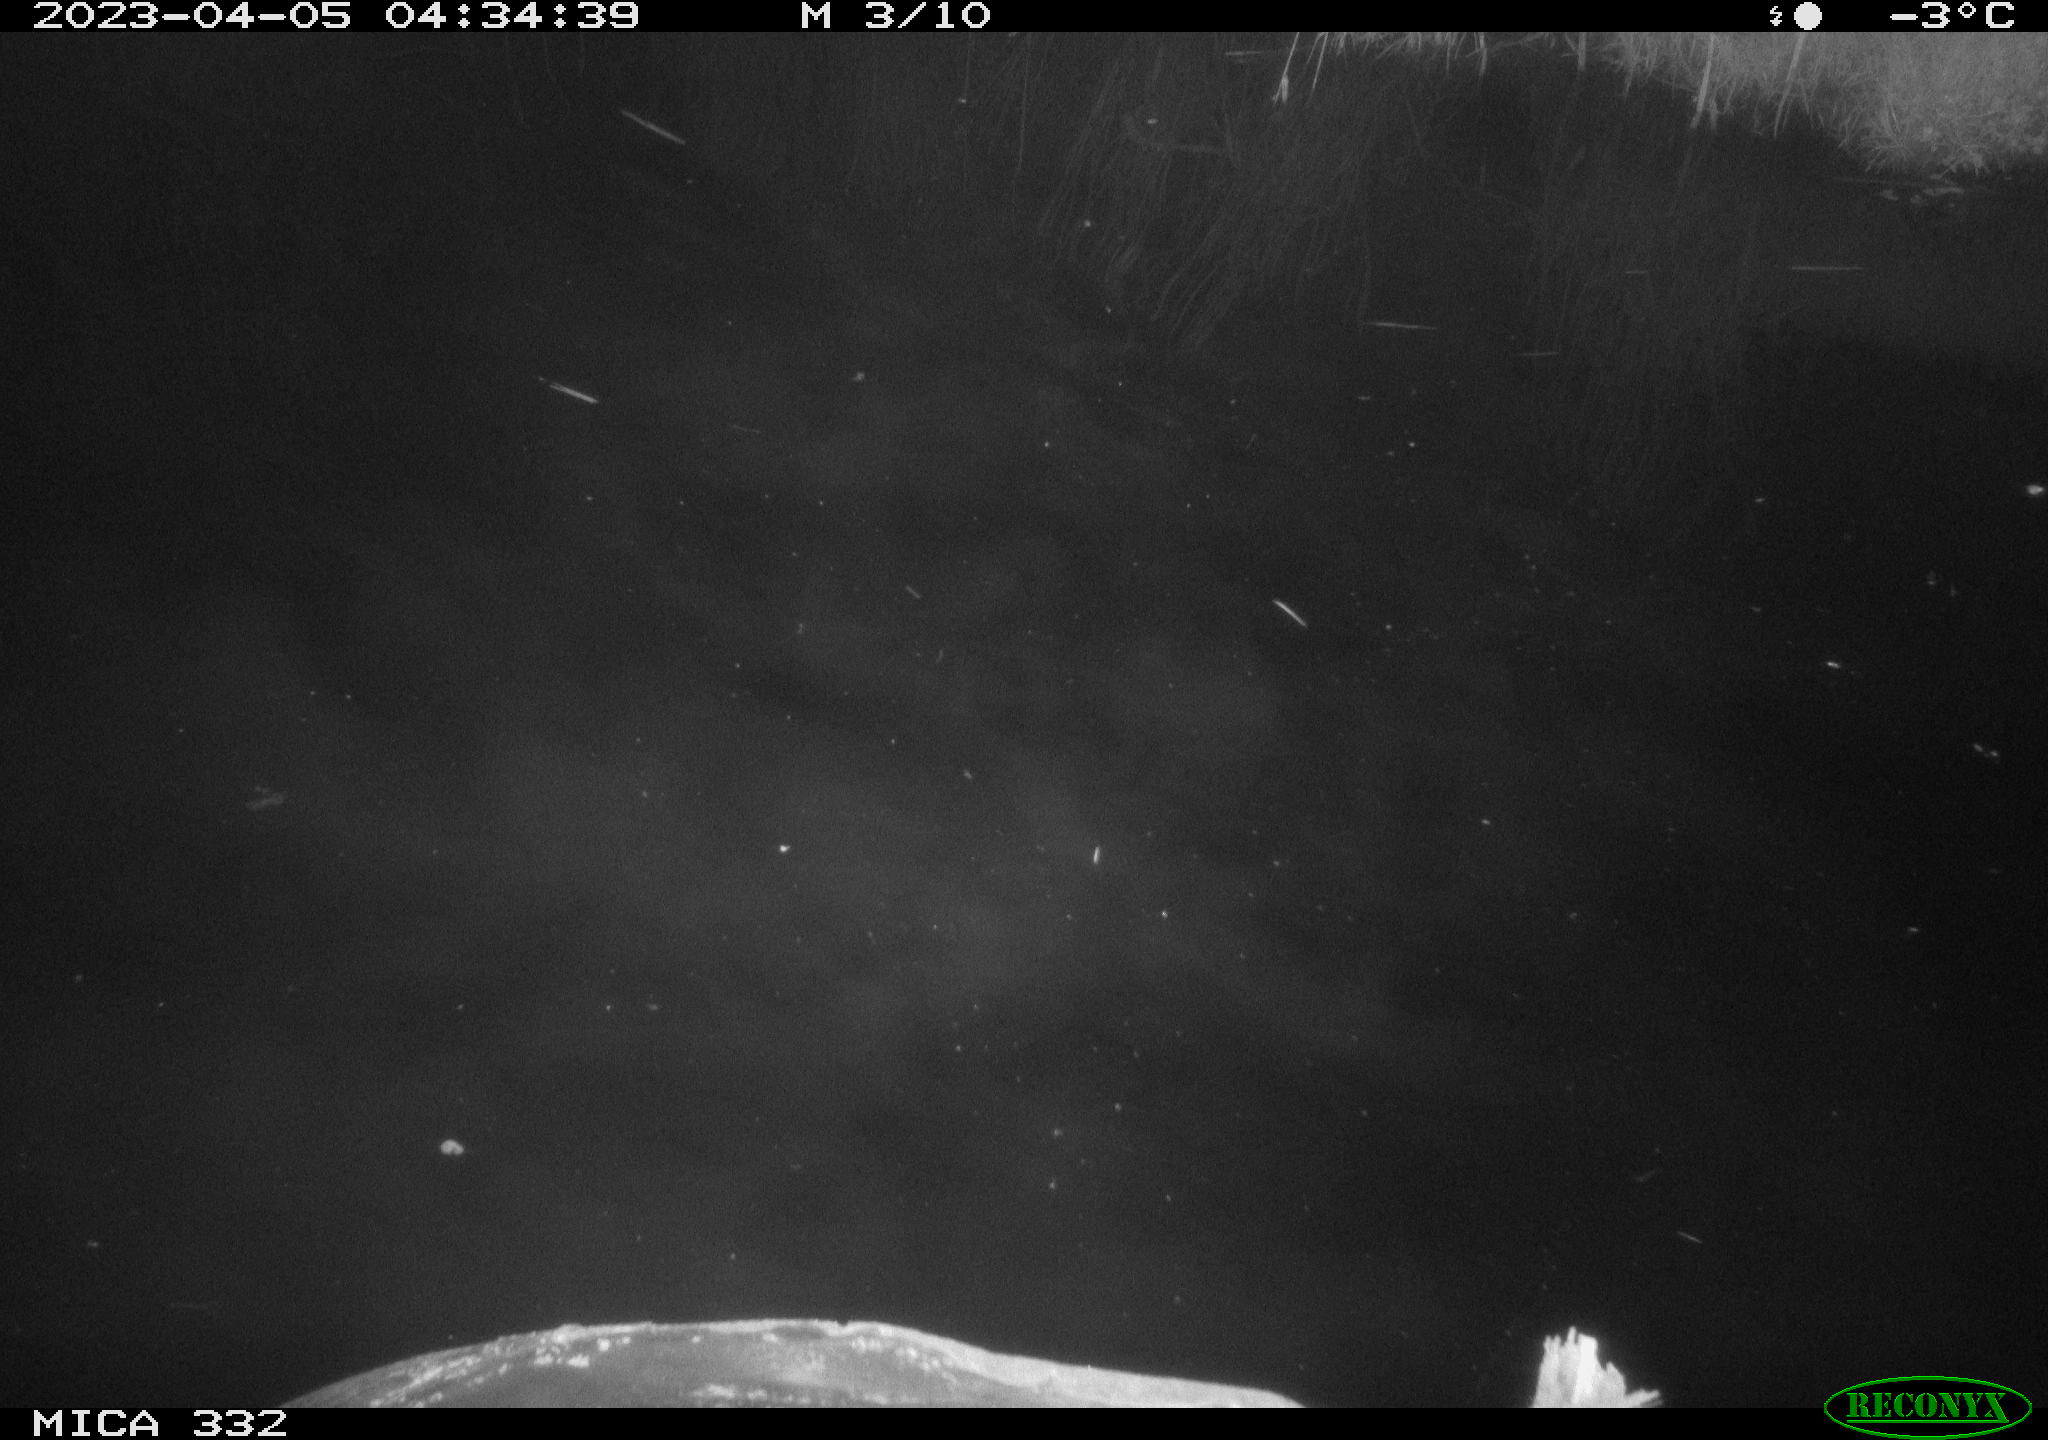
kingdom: Animalia
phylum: Chordata
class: Aves
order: Anseriformes
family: Anatidae
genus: Anas
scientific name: Anas
